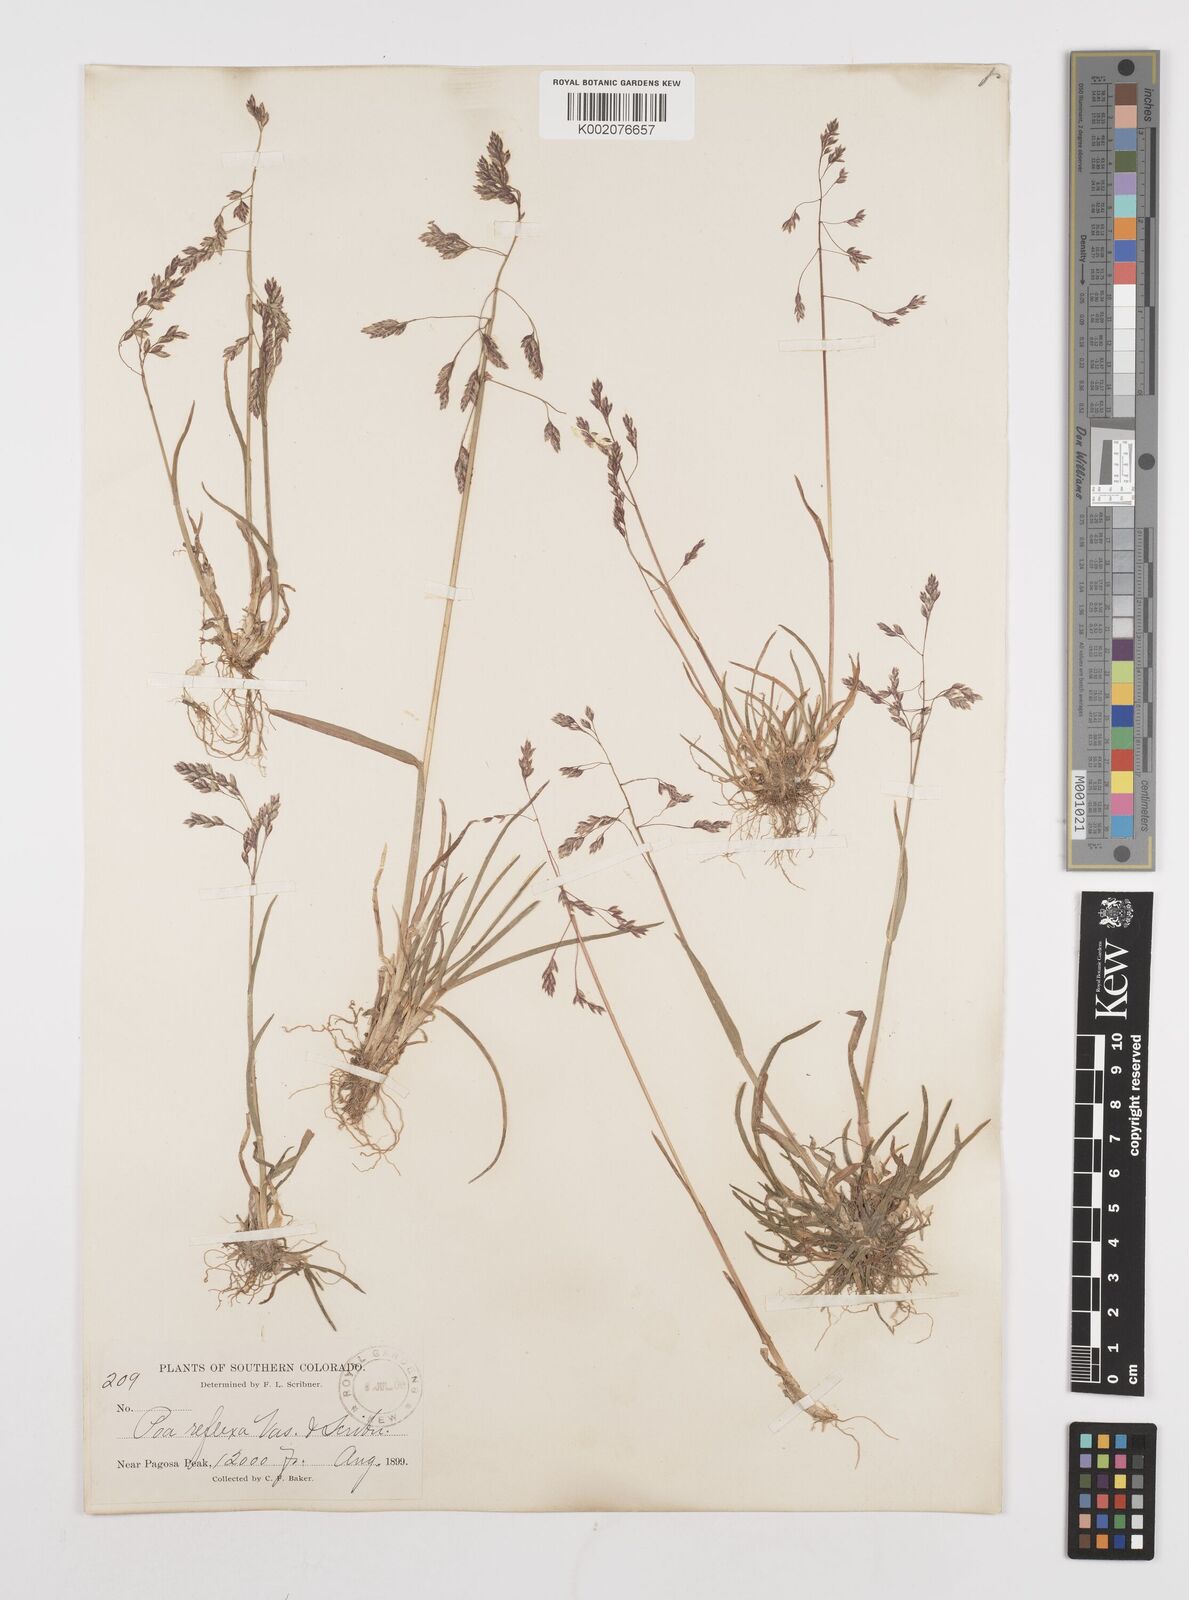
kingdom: Plantae
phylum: Tracheophyta
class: Liliopsida
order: Poales
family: Poaceae
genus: Poa
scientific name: Poa reflexa
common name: Nodding bluegrass
